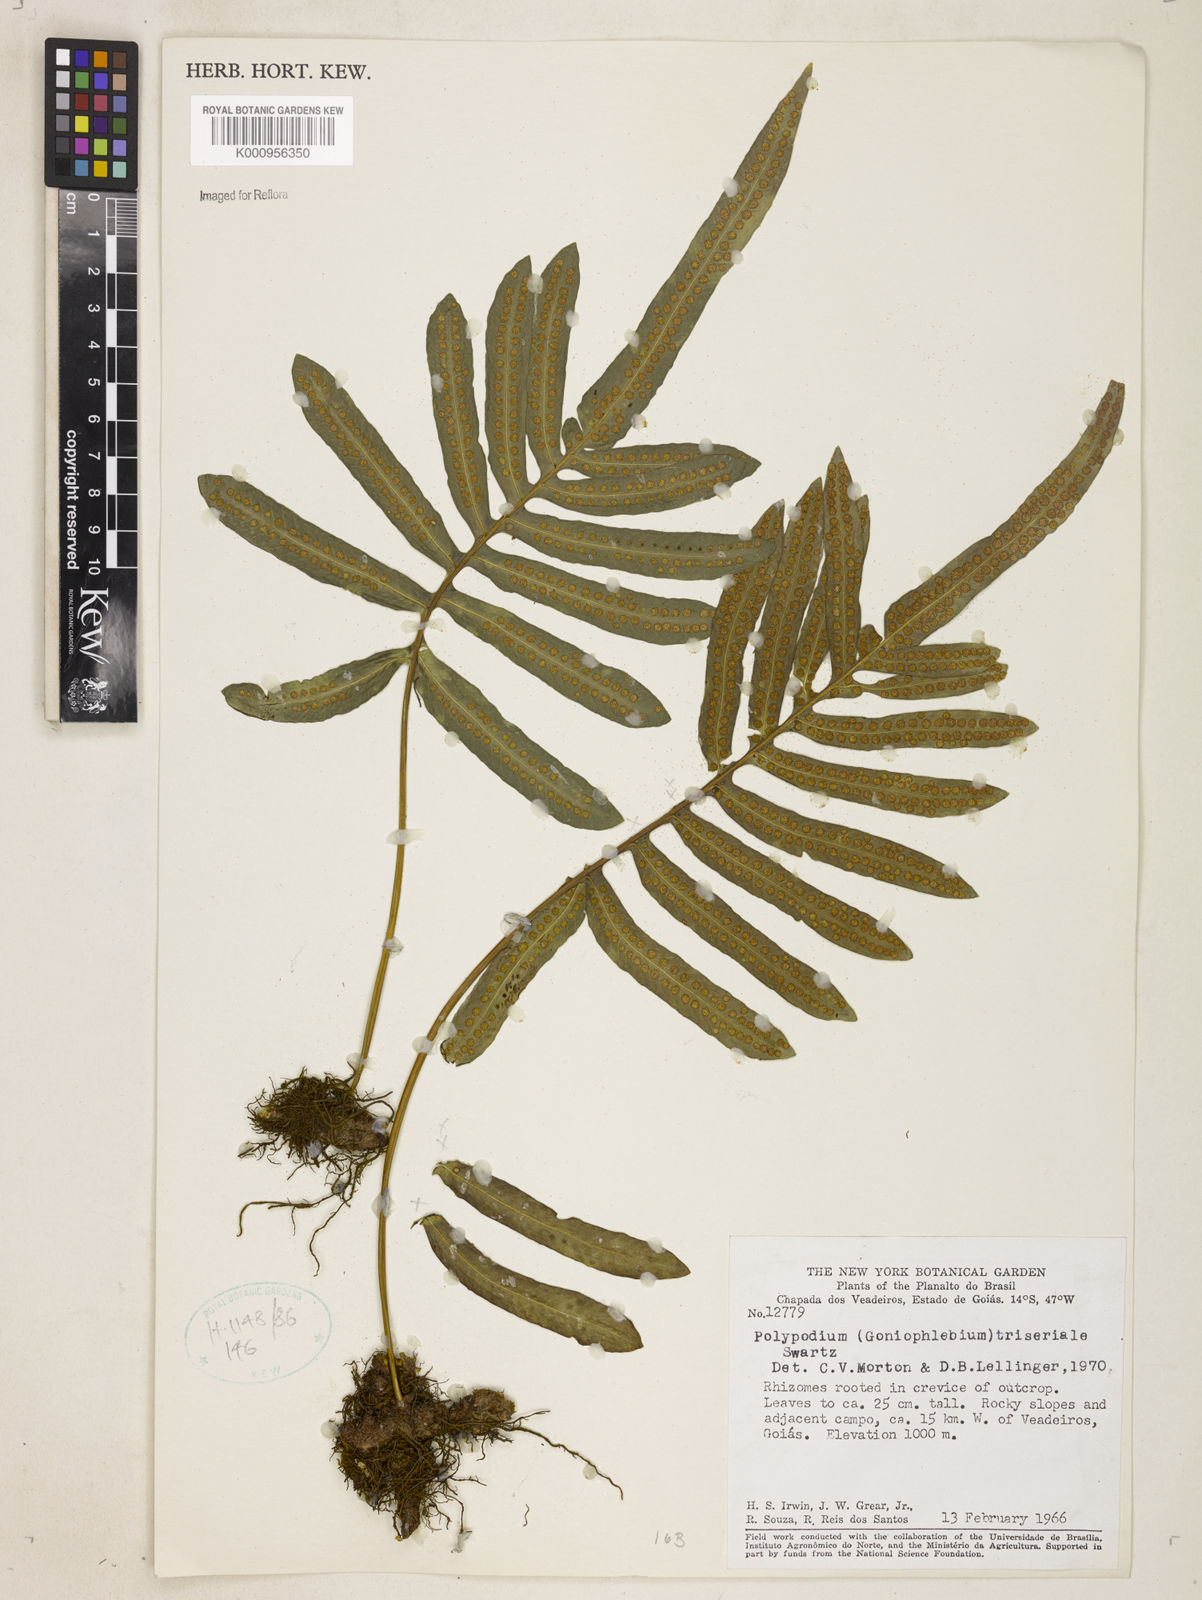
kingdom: Plantae
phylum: Tracheophyta
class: Polypodiopsida
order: Polypodiales
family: Polypodiaceae
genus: Serpocaulon
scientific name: Serpocaulon triseriale
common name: Angle-vein fern
